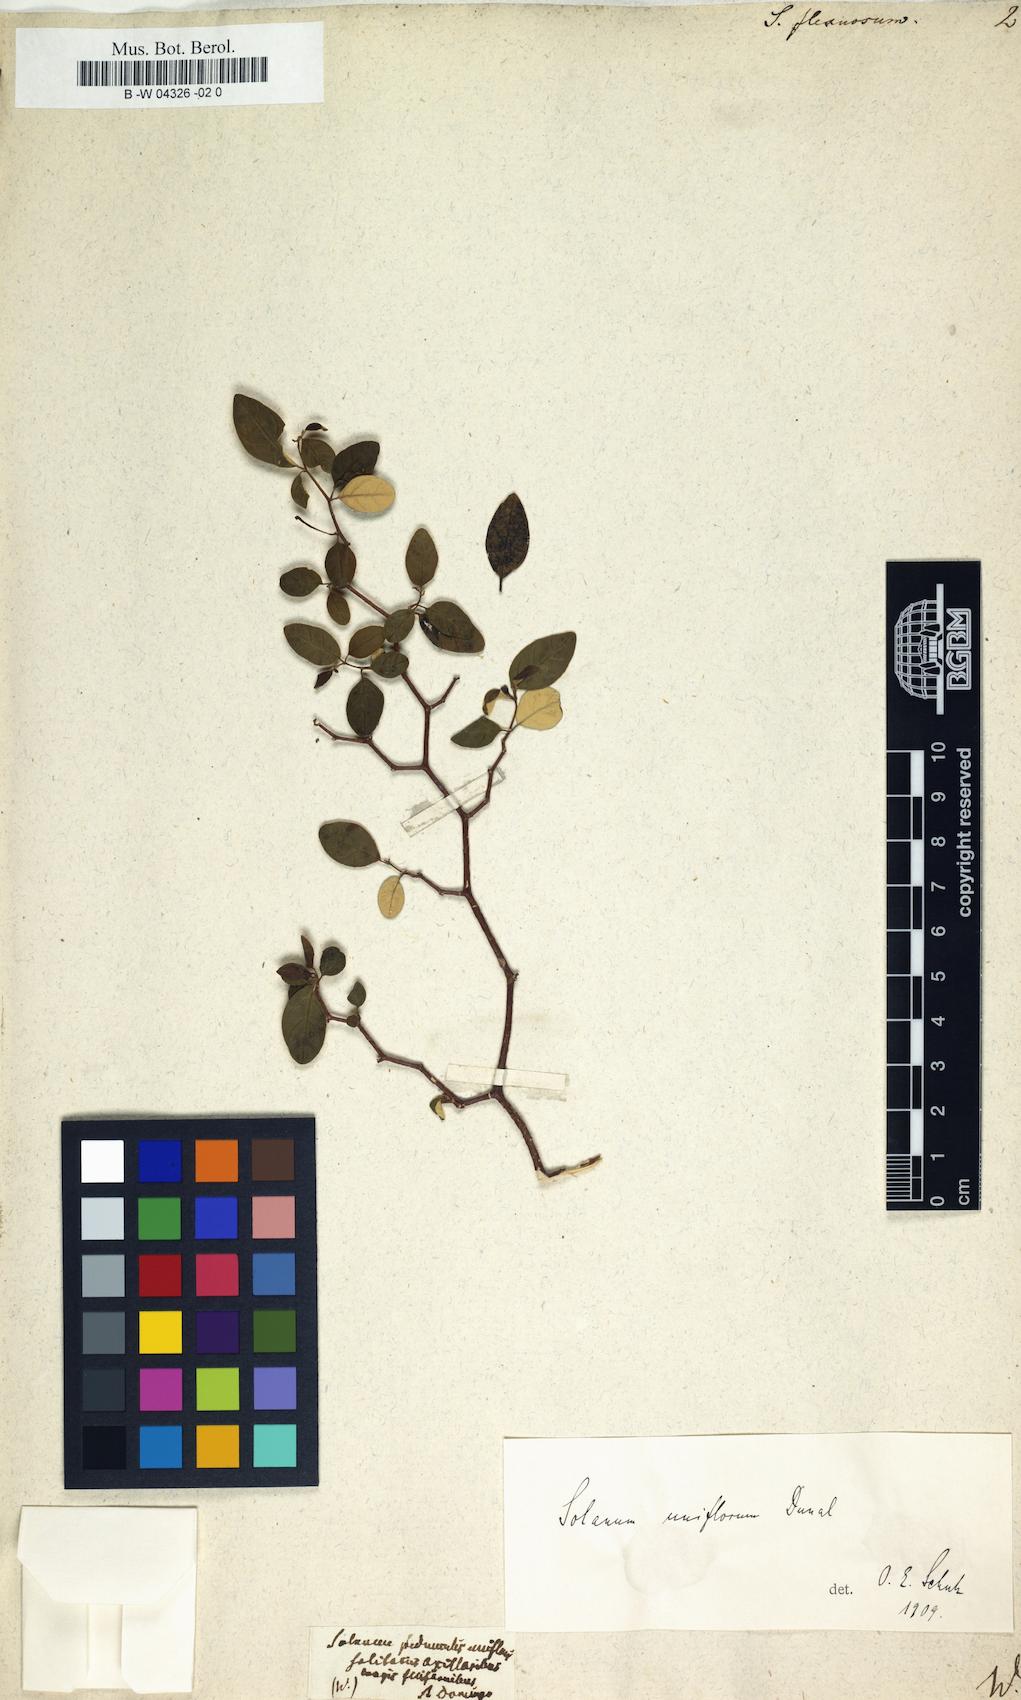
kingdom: Plantae
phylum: Tracheophyta
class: Magnoliopsida
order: Solanales
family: Solanaceae
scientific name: Solanaceae
